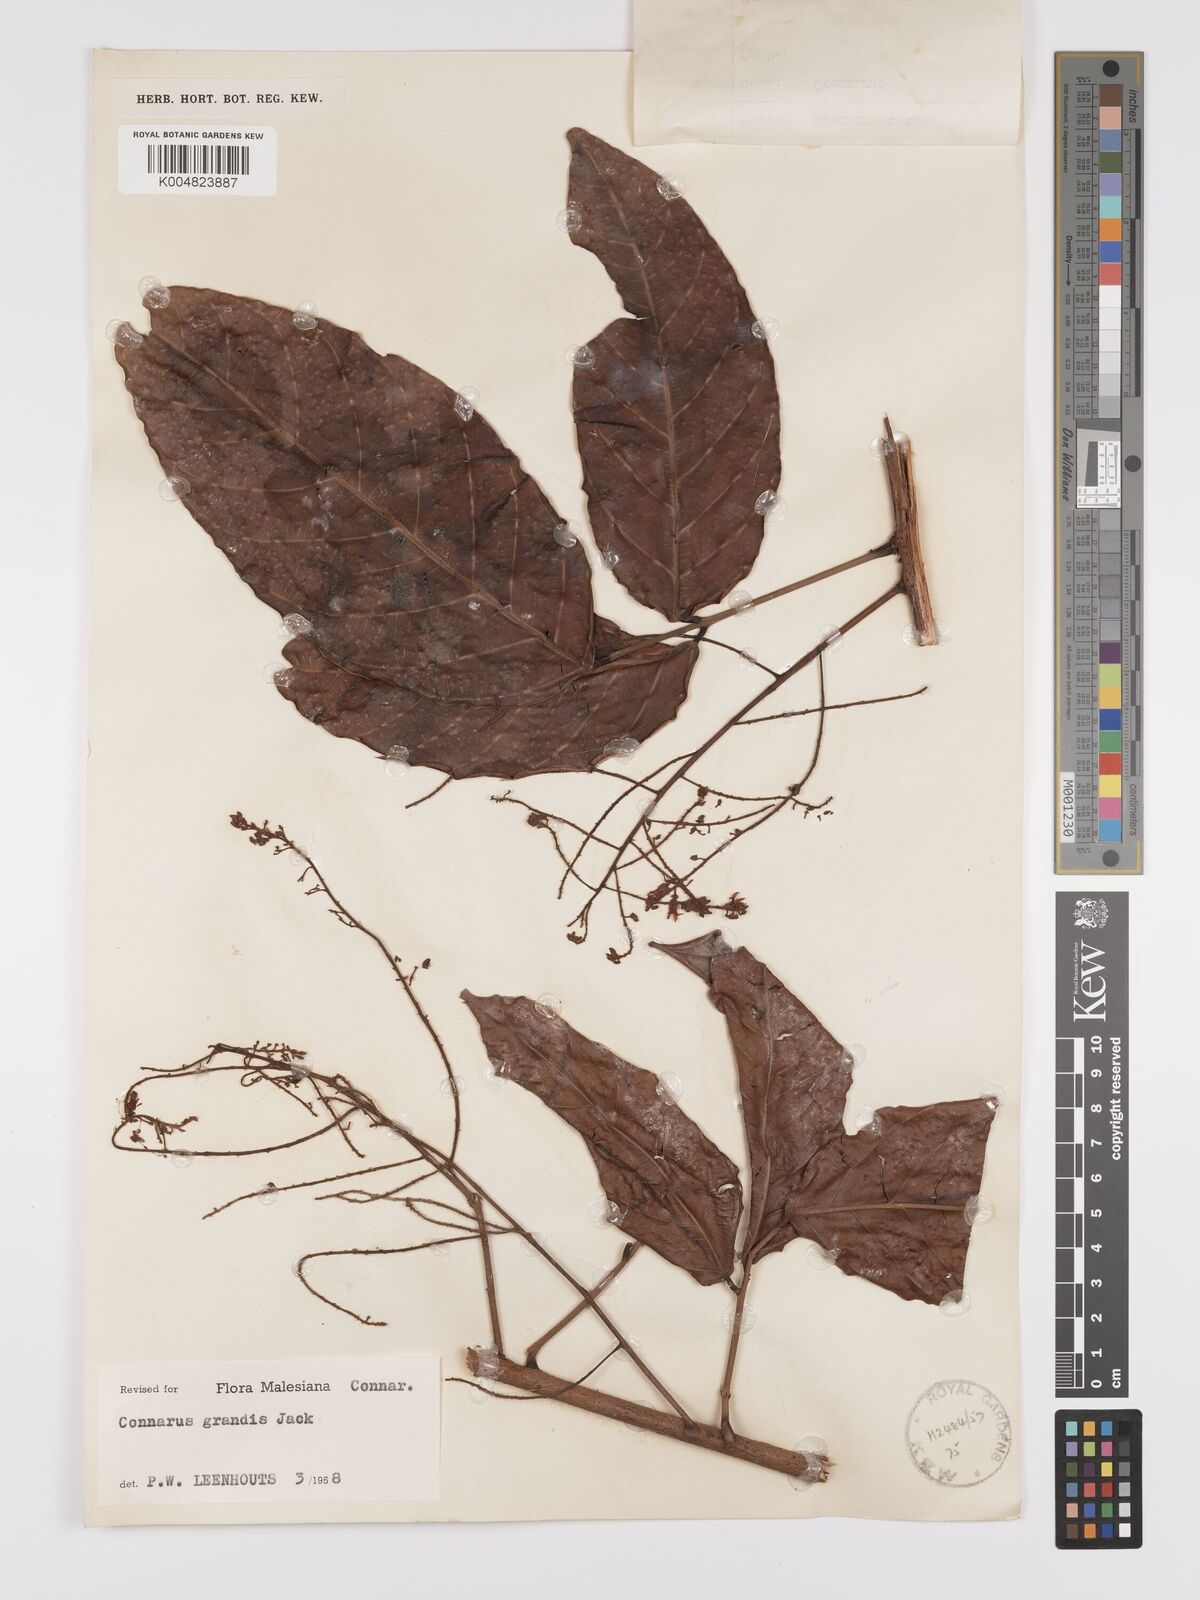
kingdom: Plantae
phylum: Tracheophyta
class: Magnoliopsida
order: Oxalidales
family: Connaraceae
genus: Connarus
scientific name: Connarus grandis
